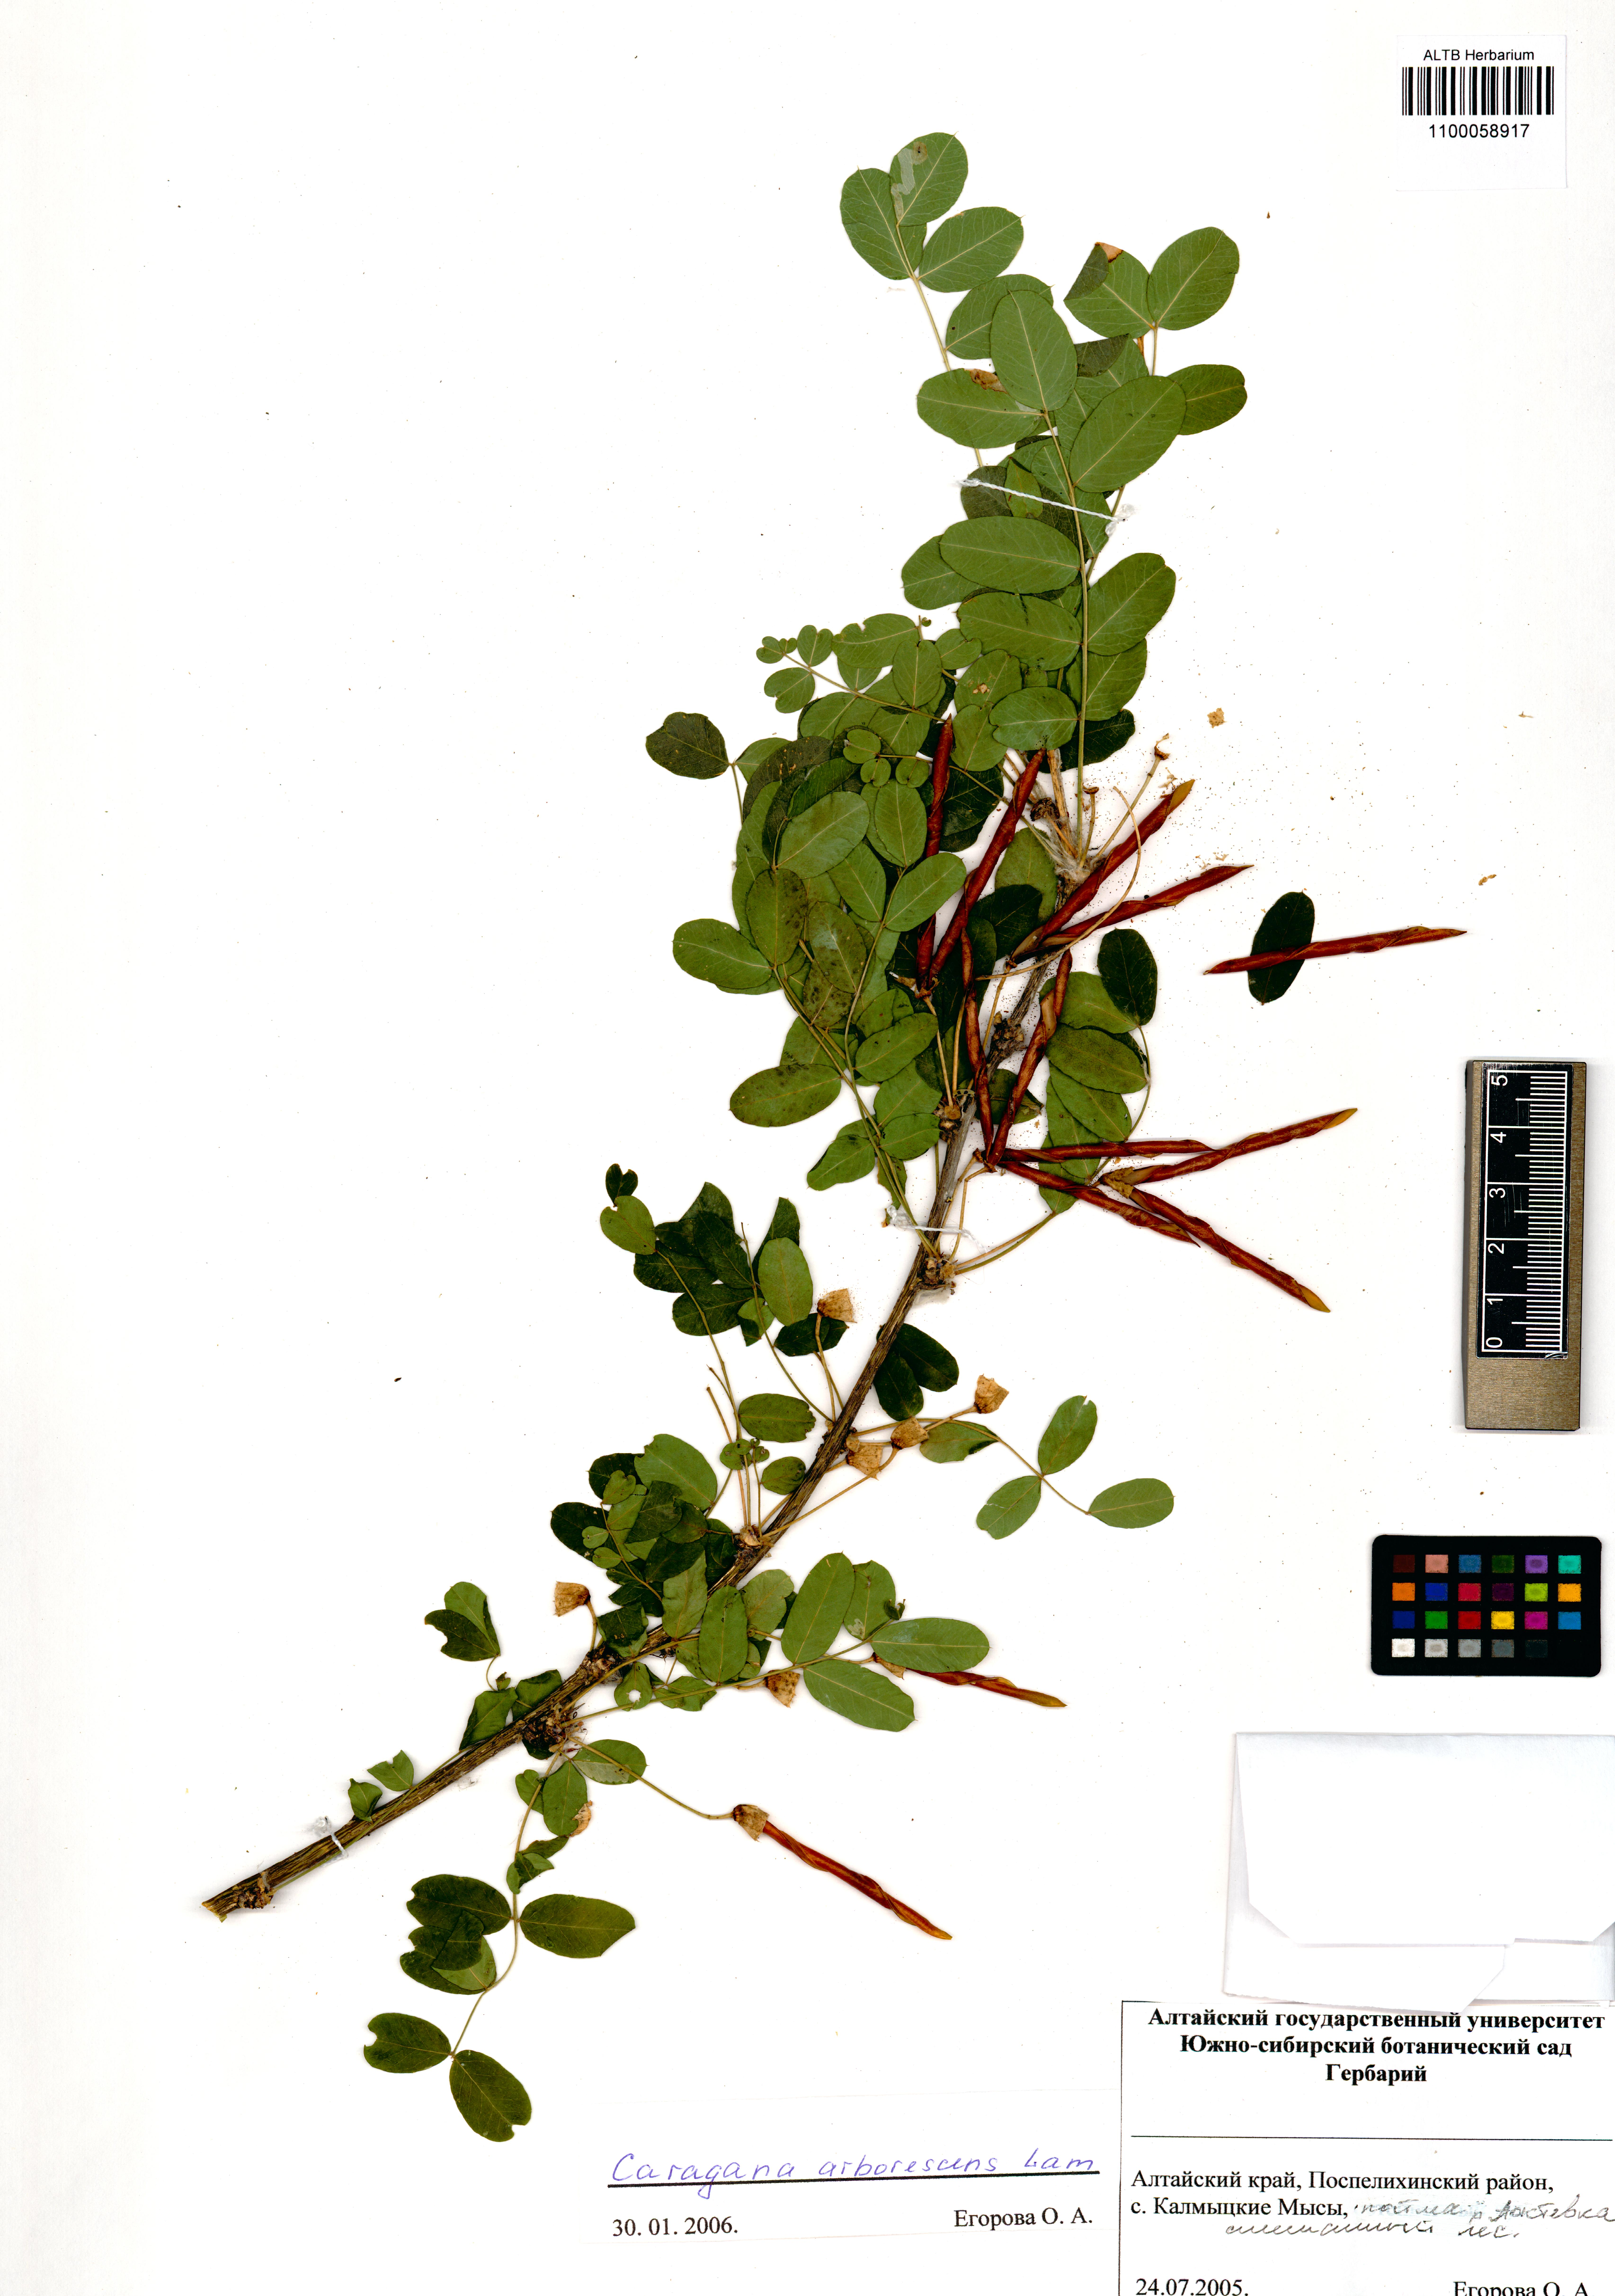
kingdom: Plantae
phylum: Tracheophyta
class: Magnoliopsida
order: Fabales
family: Fabaceae
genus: Caragana
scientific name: Caragana arborescens
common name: Siberian peashrub
